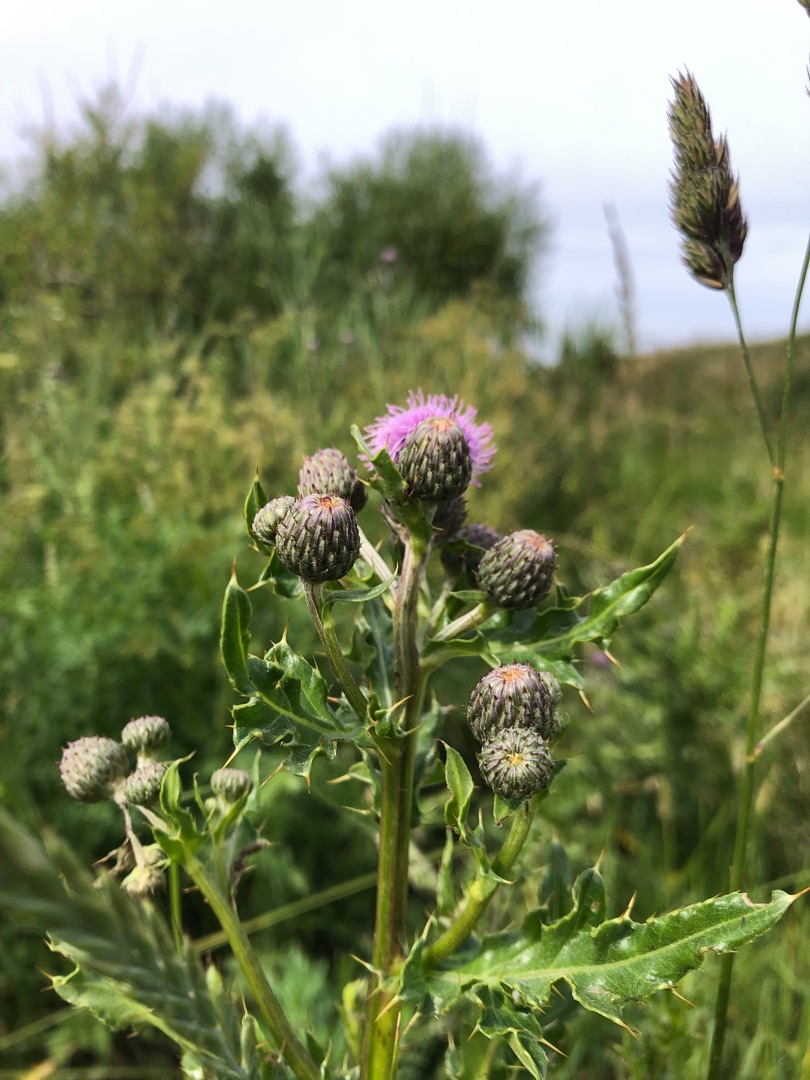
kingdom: Plantae
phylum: Tracheophyta
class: Magnoliopsida
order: Asterales
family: Asteraceae
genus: Cirsium
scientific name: Cirsium arvense
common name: Ager-tidsel
